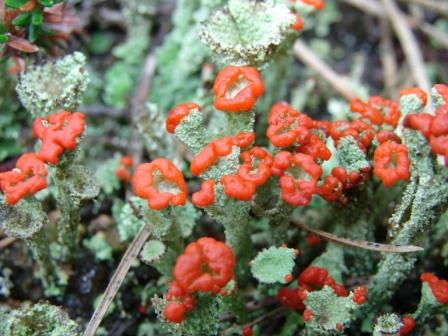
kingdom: Fungi
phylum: Ascomycota
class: Lecanoromycetes
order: Lecanorales
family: Cladoniaceae
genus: Cladonia
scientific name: Cladonia diversa
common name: rød bægerlav
